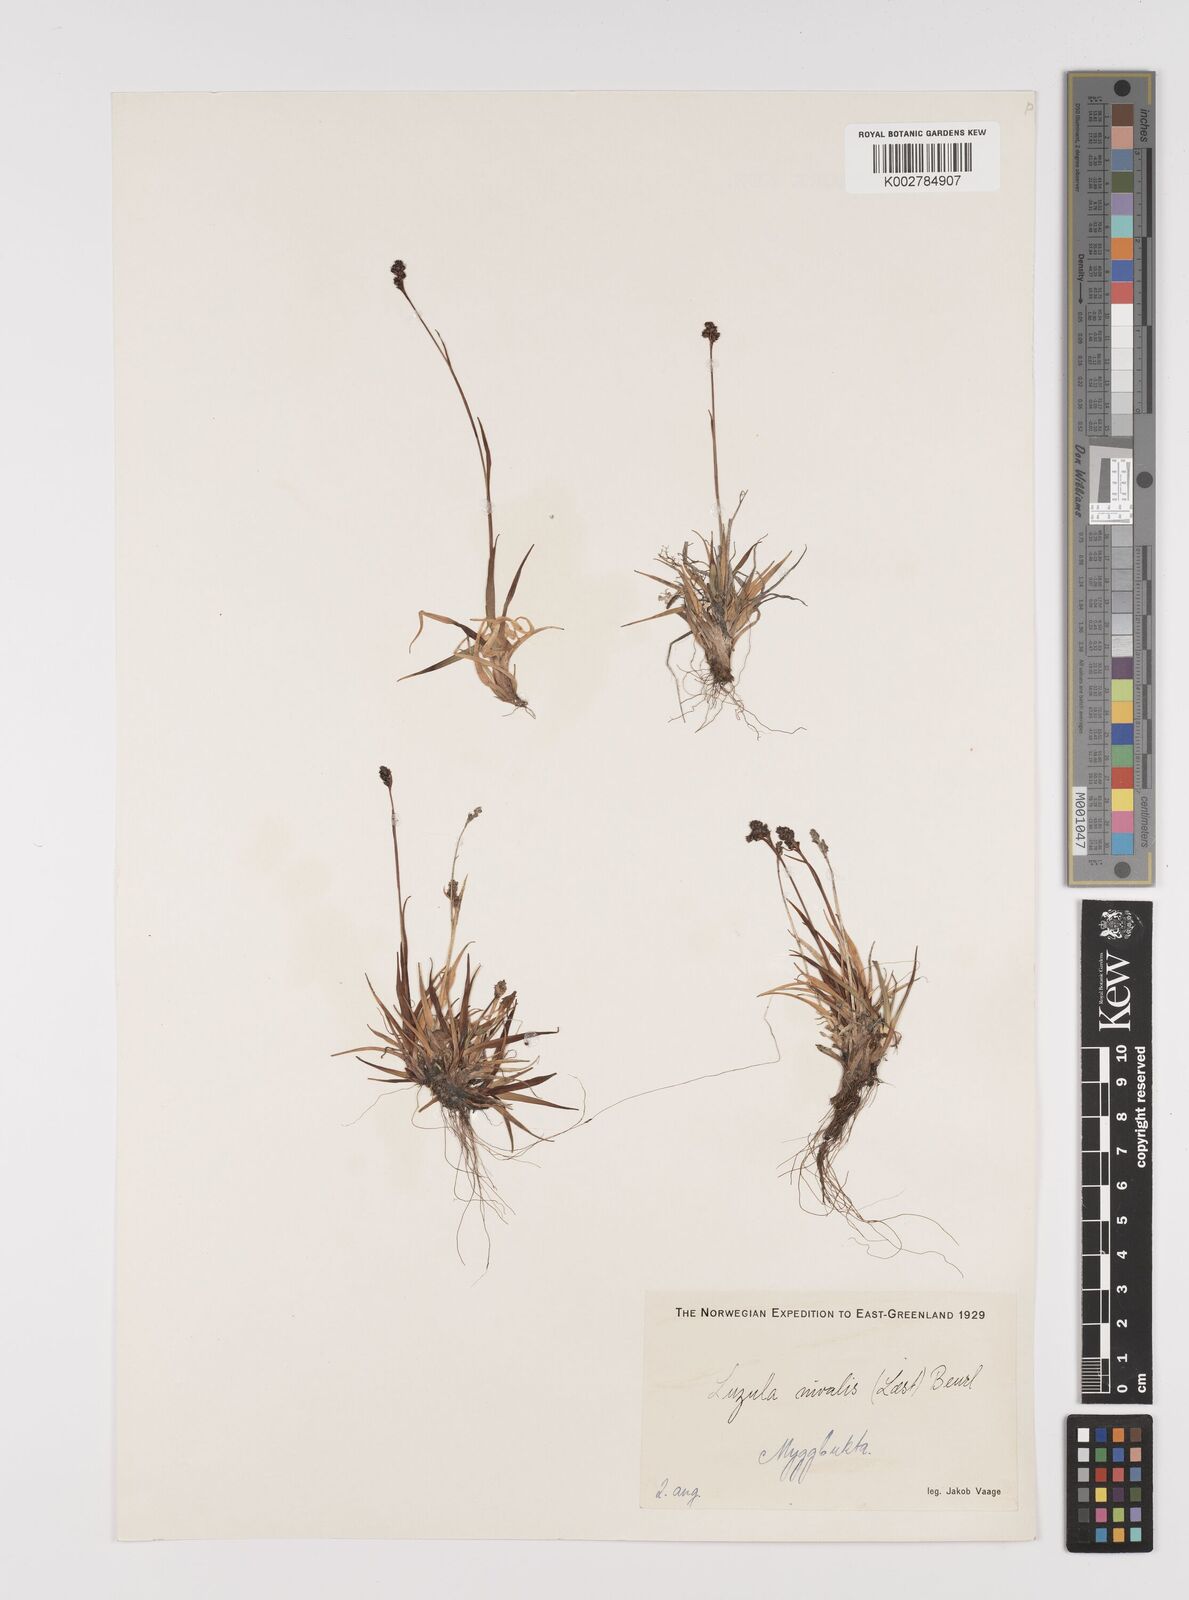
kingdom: Plantae
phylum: Tracheophyta
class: Liliopsida
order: Poales
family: Juncaceae
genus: Luzula
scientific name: Luzula nivalis
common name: Arctic woodrush
